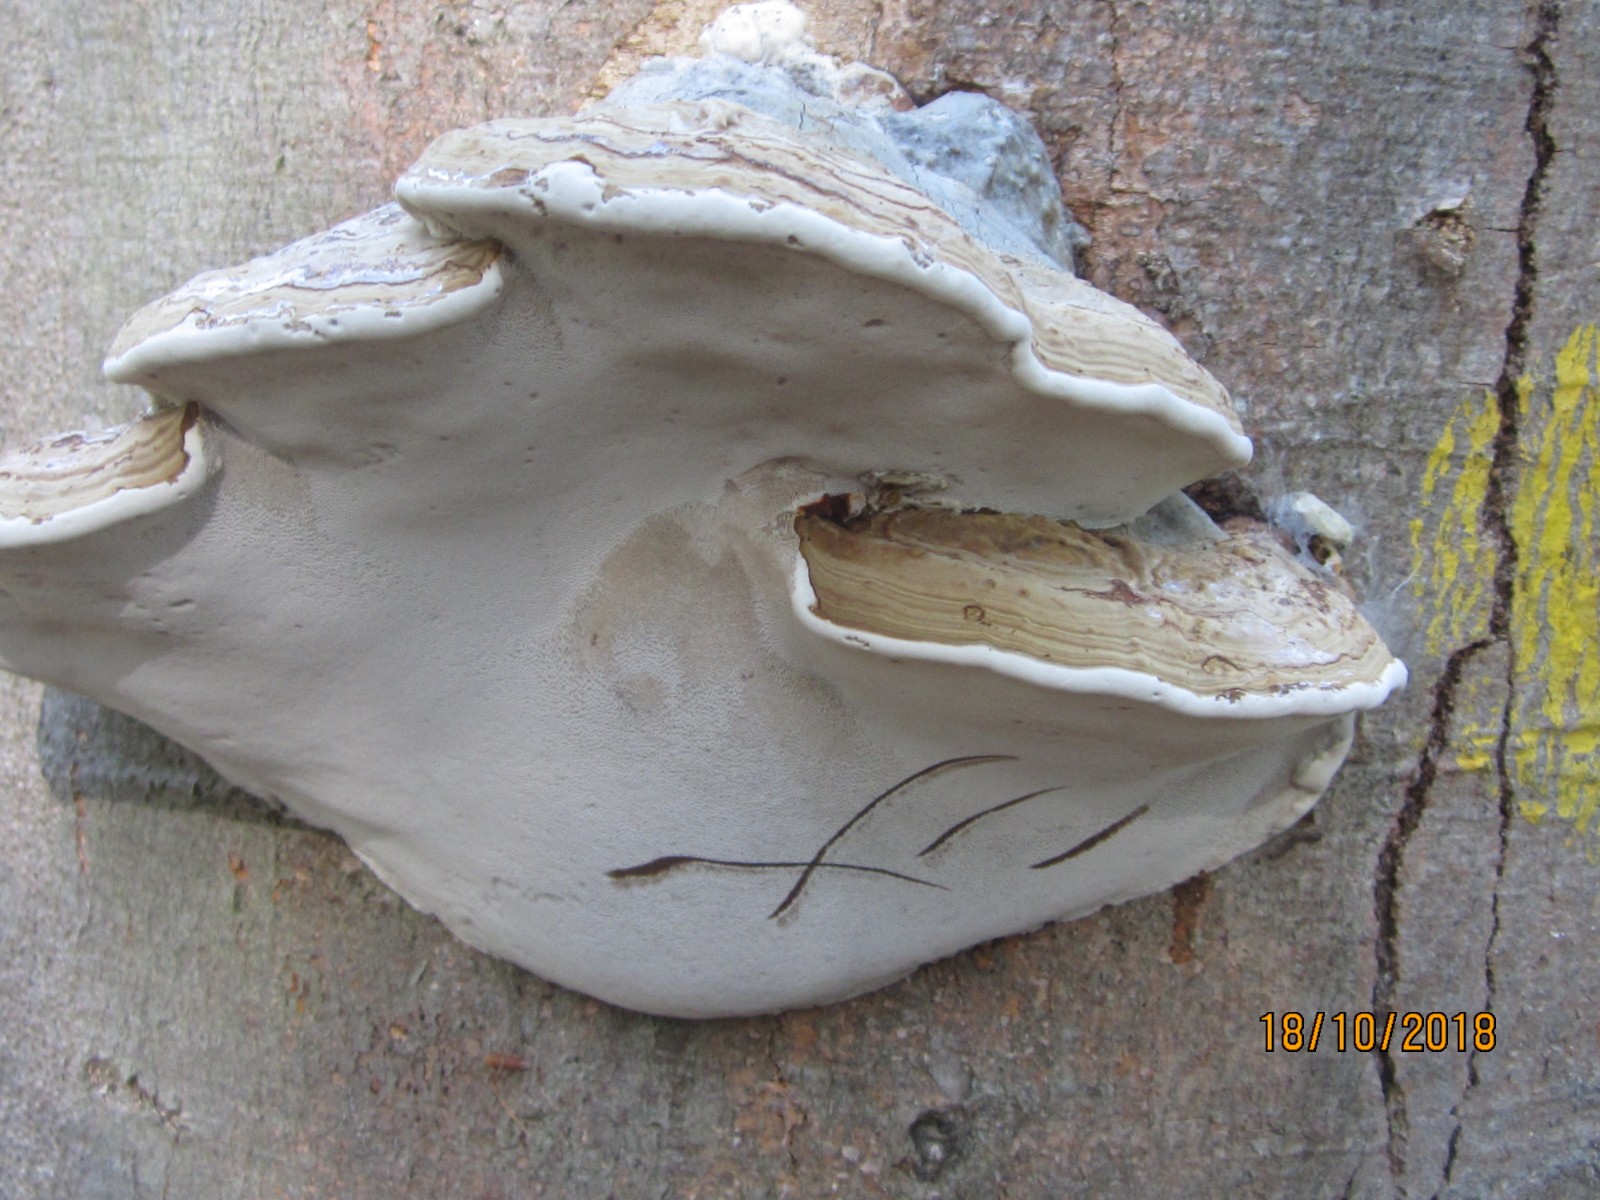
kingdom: Fungi
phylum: Basidiomycota
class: Agaricomycetes
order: Polyporales
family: Polyporaceae
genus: Ganoderma
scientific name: Ganoderma applanatum
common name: flad lakporesvamp
